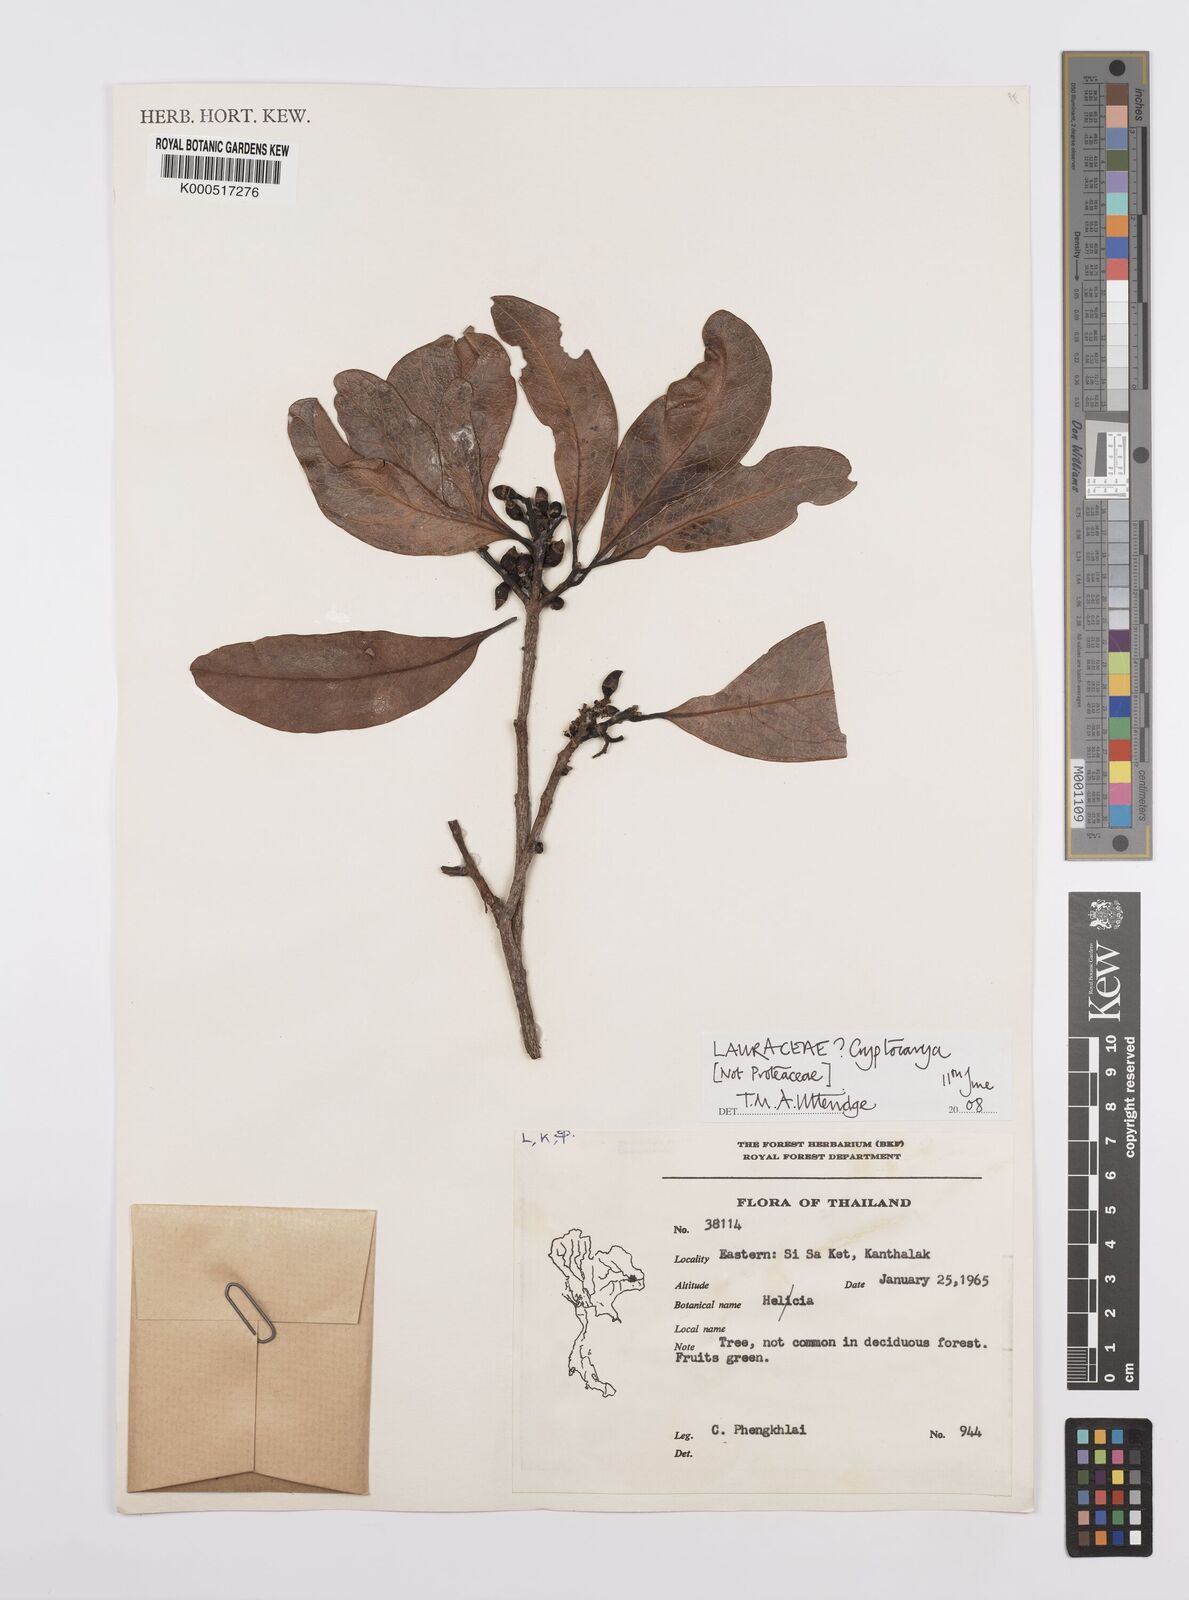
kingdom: Plantae
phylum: Tracheophyta
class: Magnoliopsida
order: Laurales
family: Lauraceae
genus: Cryptocarya
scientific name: Cryptocarya
